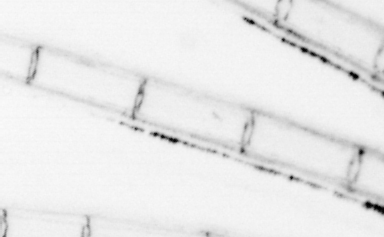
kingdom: Animalia
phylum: Chordata
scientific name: Chordata
